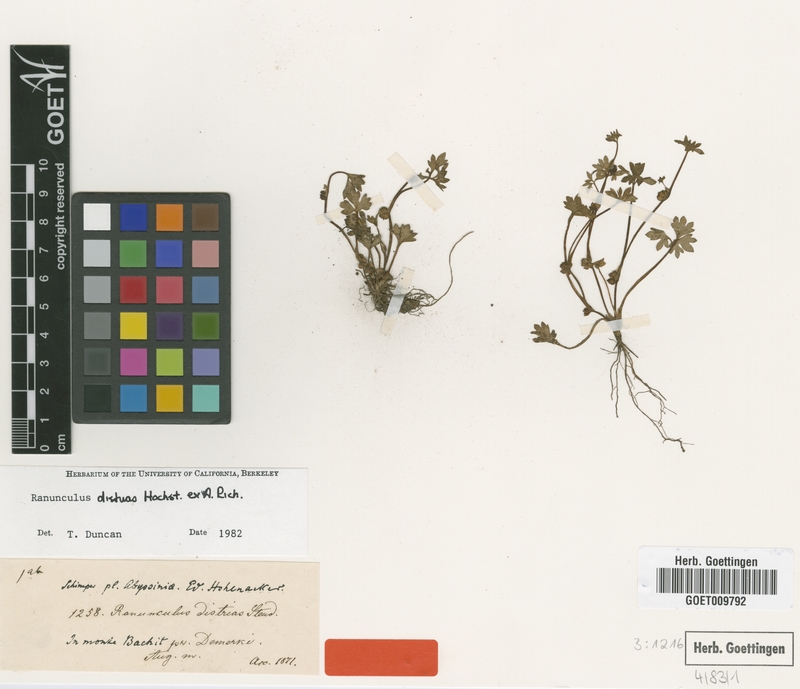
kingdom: Plantae
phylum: Tracheophyta
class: Magnoliopsida
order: Ranunculales
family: Ranunculaceae
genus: Ranunculus
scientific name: Ranunculus cuneilobus
